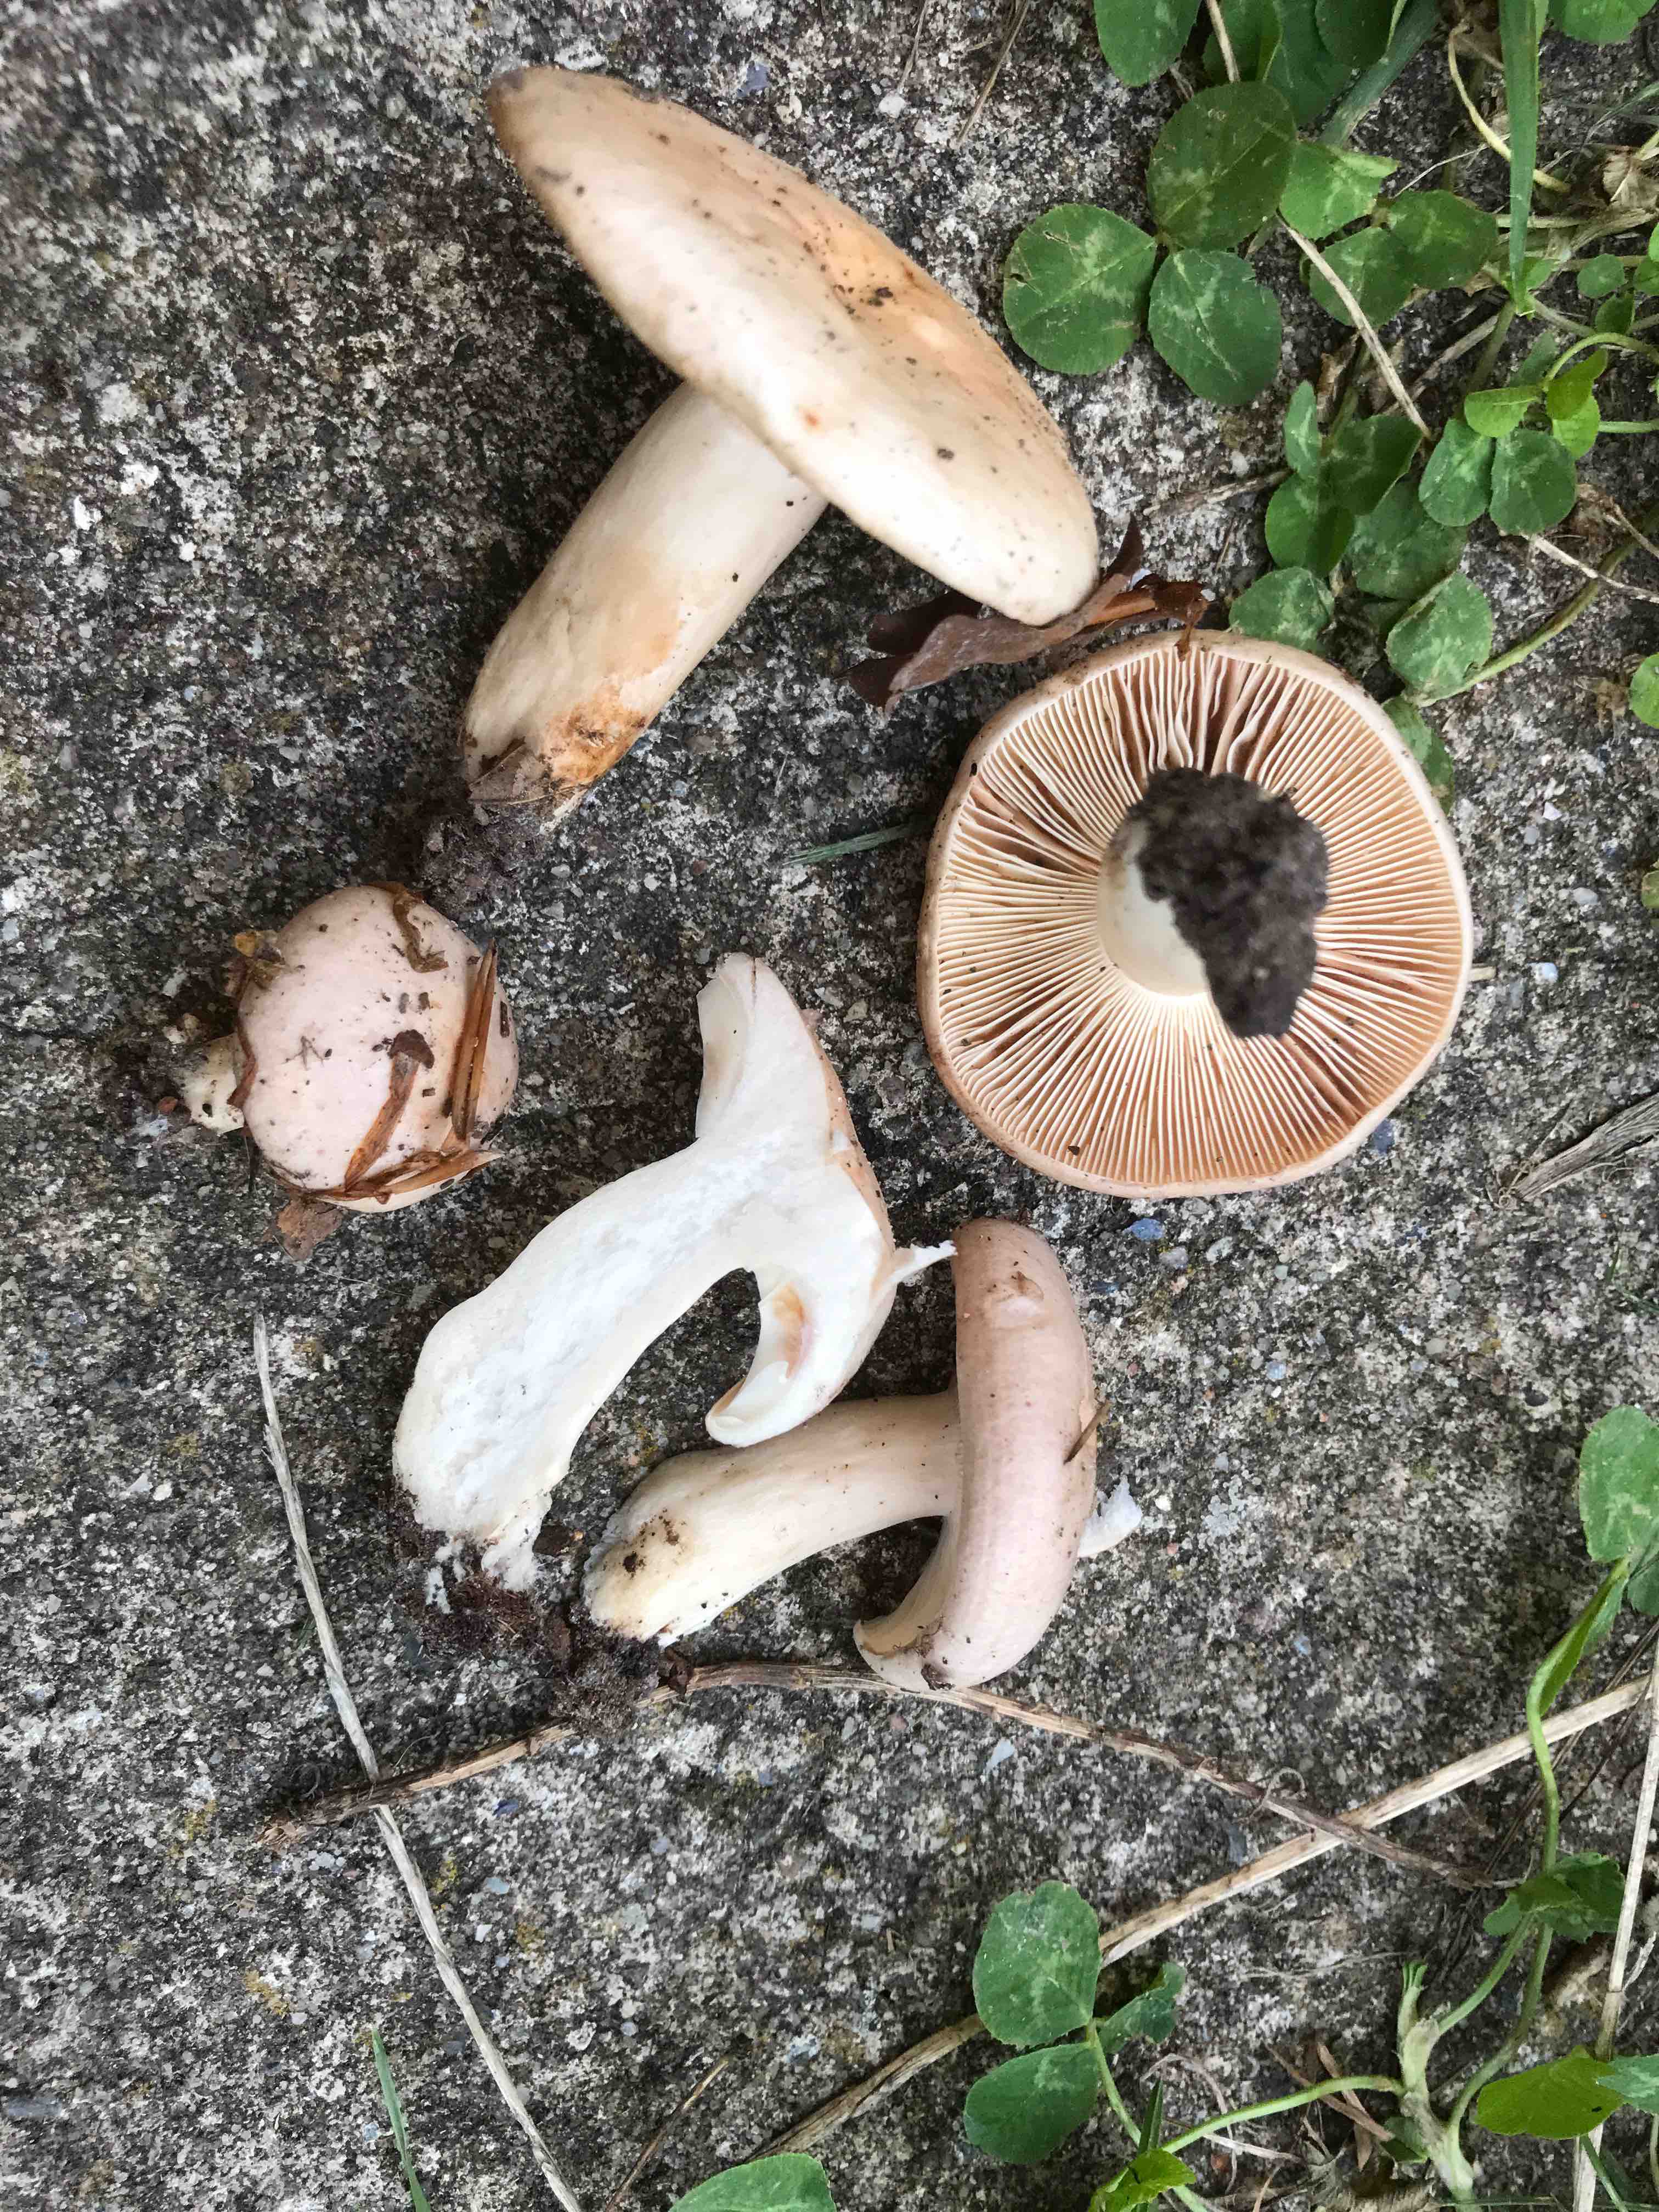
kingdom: Fungi
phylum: Basidiomycota
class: Agaricomycetes
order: Russulales
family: Russulaceae
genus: Lactarius
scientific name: Lactarius pallidus
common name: bleg mælkehat
